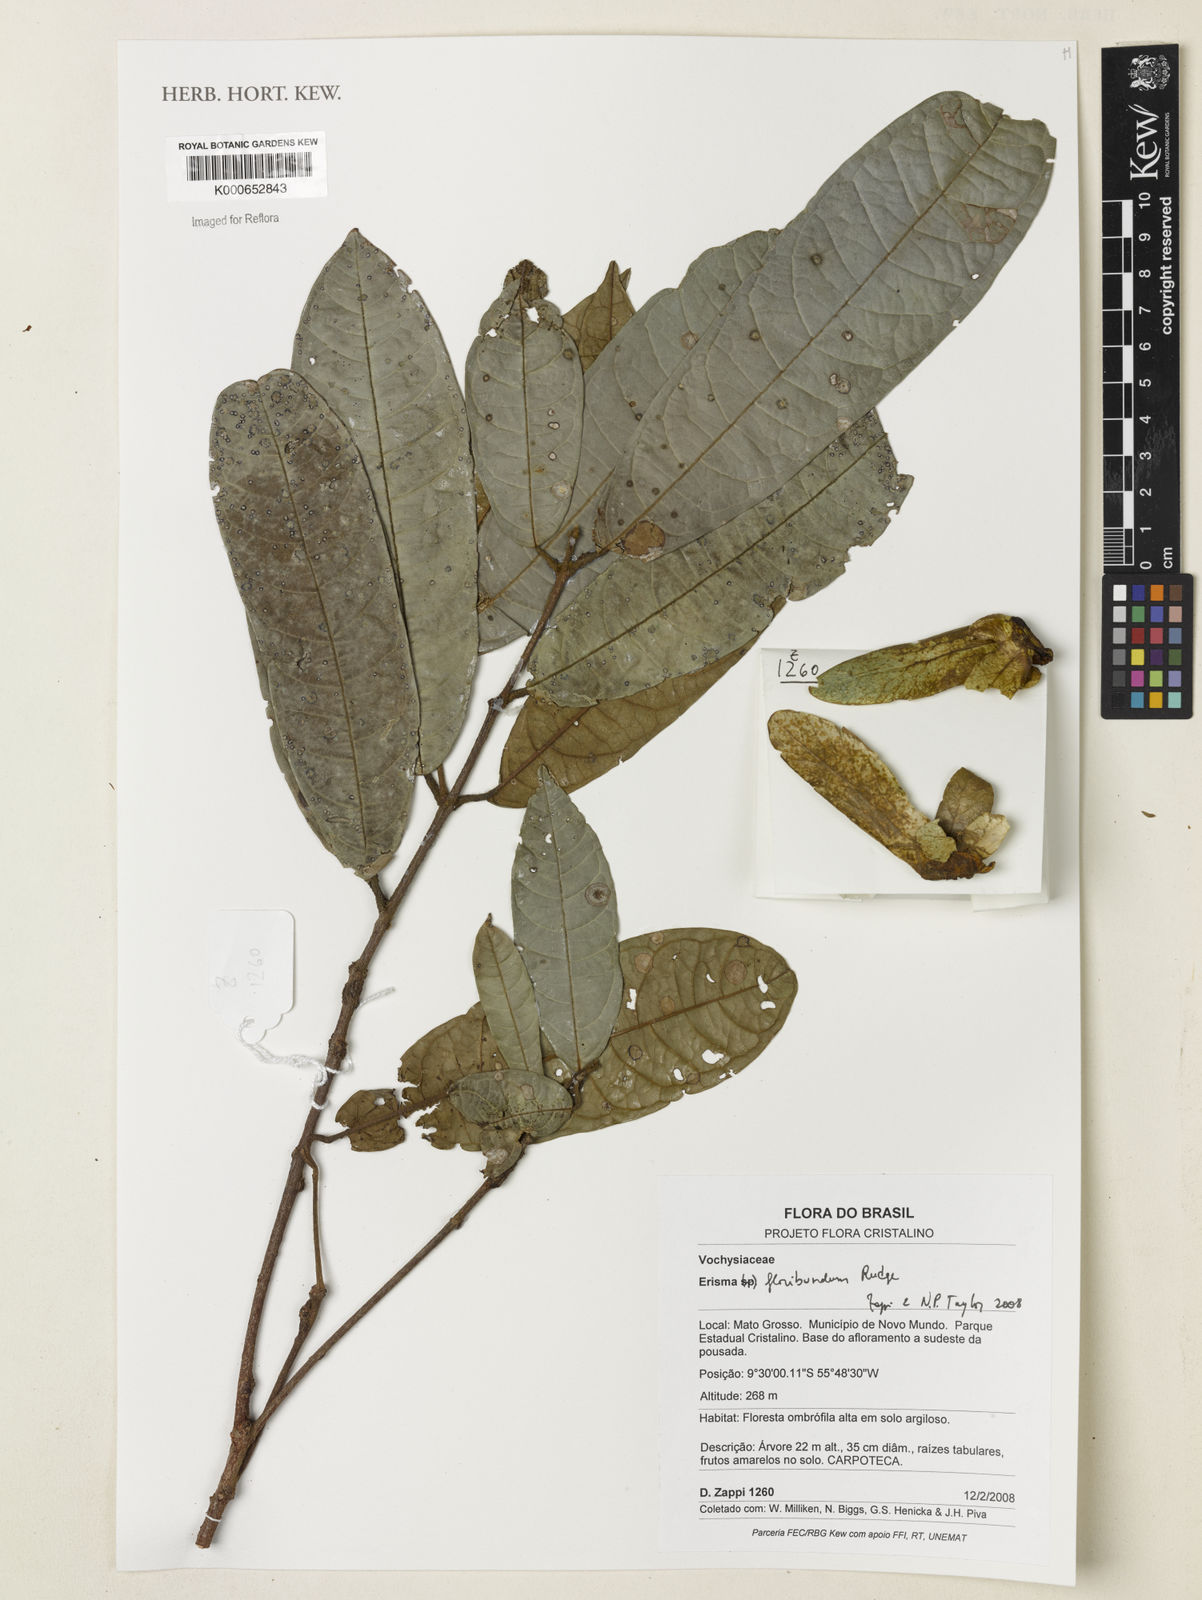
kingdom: Plantae
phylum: Tracheophyta
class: Magnoliopsida
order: Myrtales
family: Vochysiaceae
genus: Erisma
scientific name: Erisma floribundum
